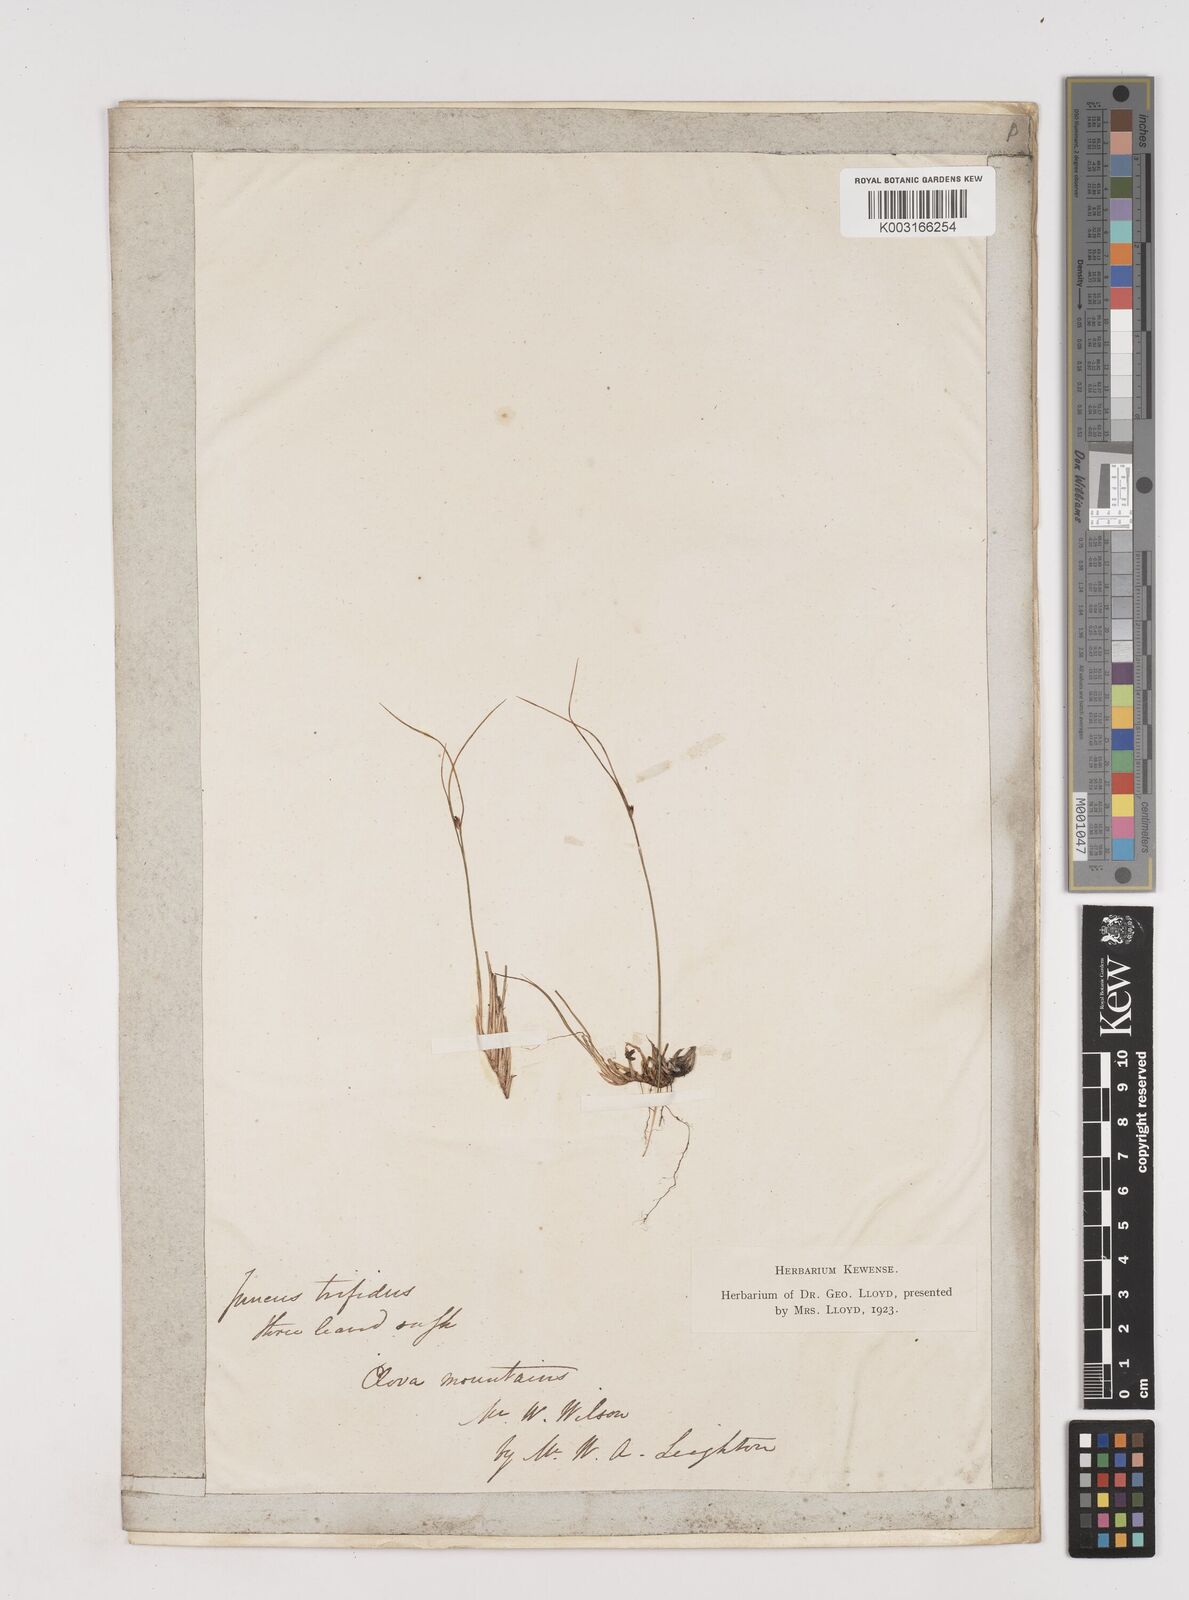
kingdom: Plantae
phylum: Tracheophyta
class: Liliopsida
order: Poales
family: Juncaceae
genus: Oreojuncus
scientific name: Oreojuncus trifidus
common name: Highland rush
